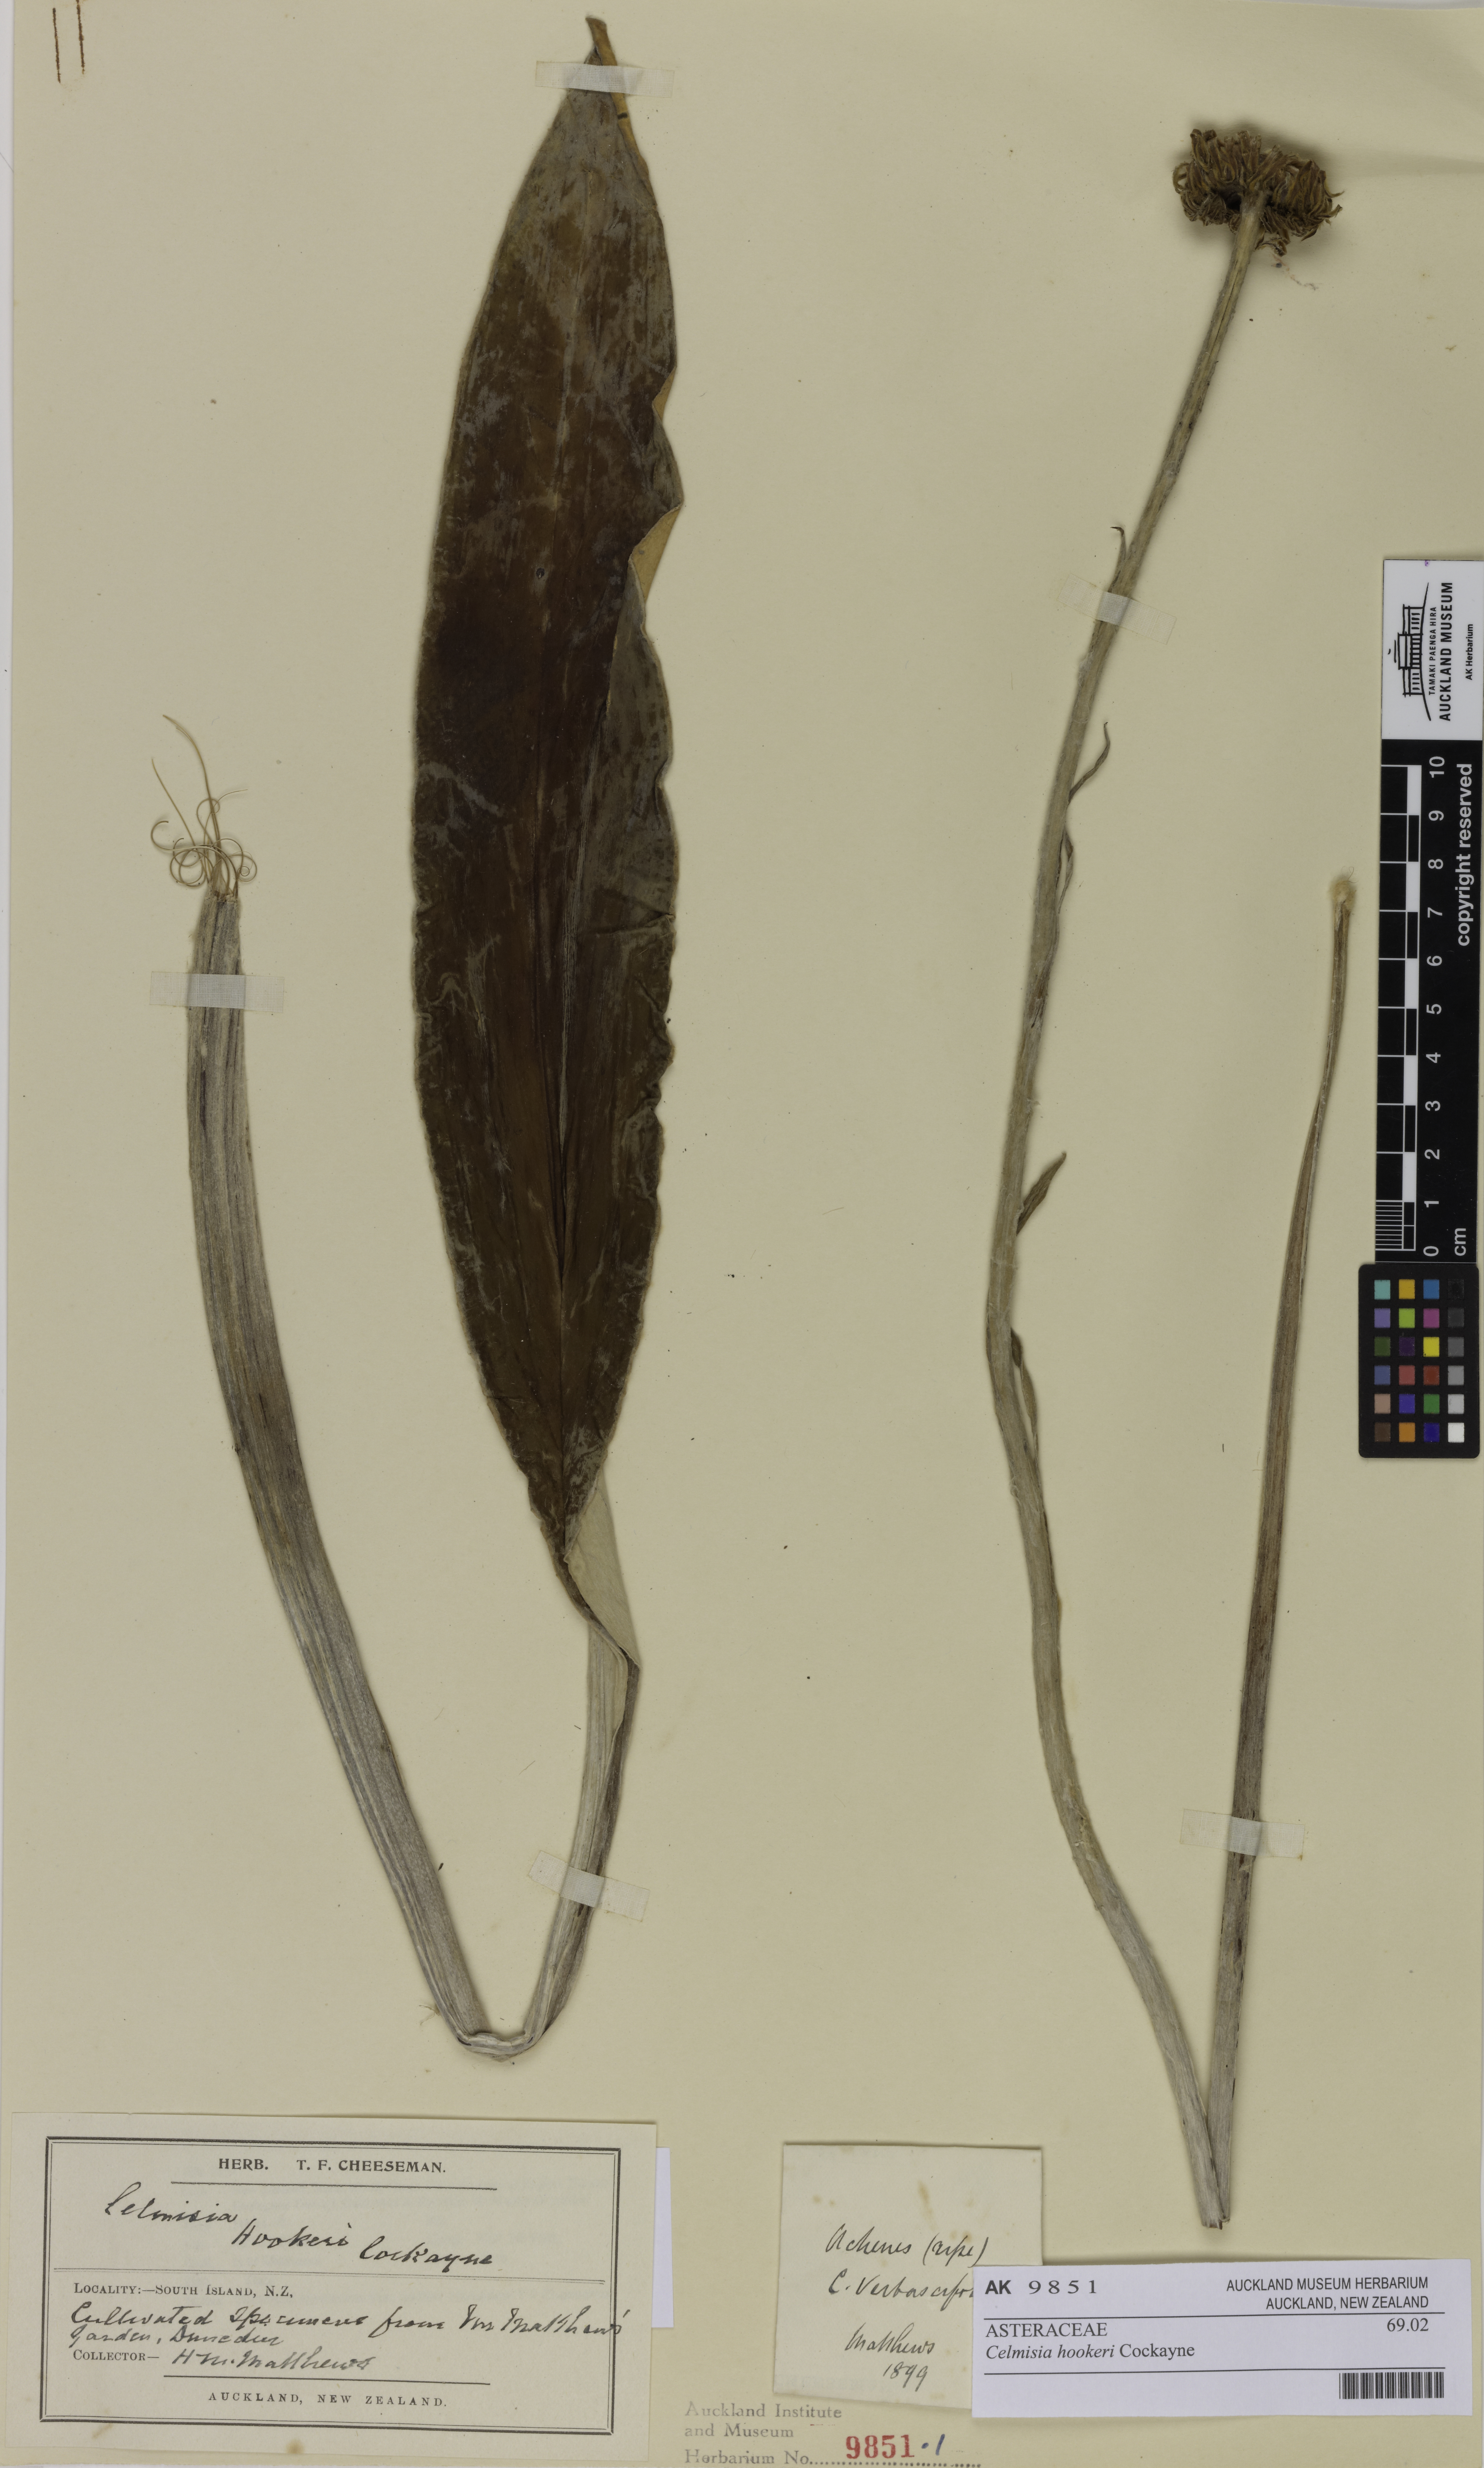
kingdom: Plantae
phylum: Tracheophyta
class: Magnoliopsida
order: Asterales
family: Asteraceae
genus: Celmisia
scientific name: Celmisia hookeri
